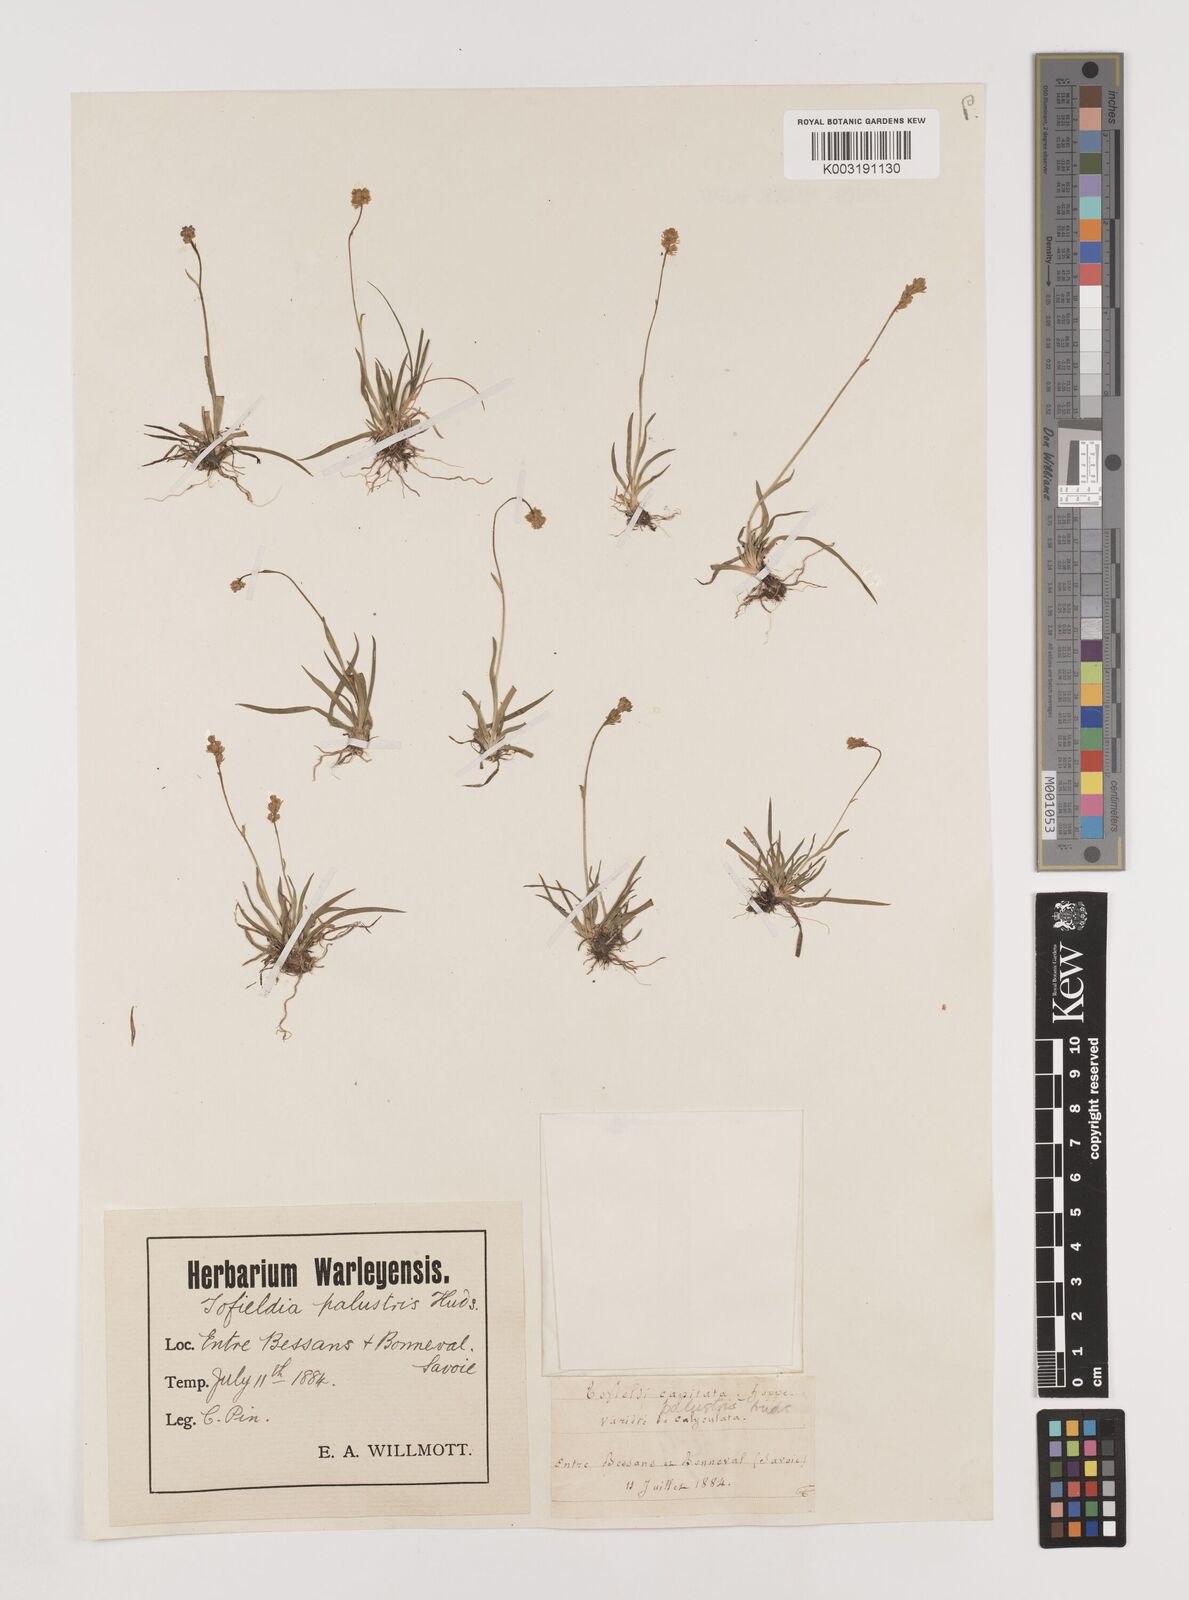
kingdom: Plantae
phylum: Tracheophyta
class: Liliopsida
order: Alismatales
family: Tofieldiaceae
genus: Tofieldia
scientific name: Tofieldia pusilla
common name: Scottish false asphodel
